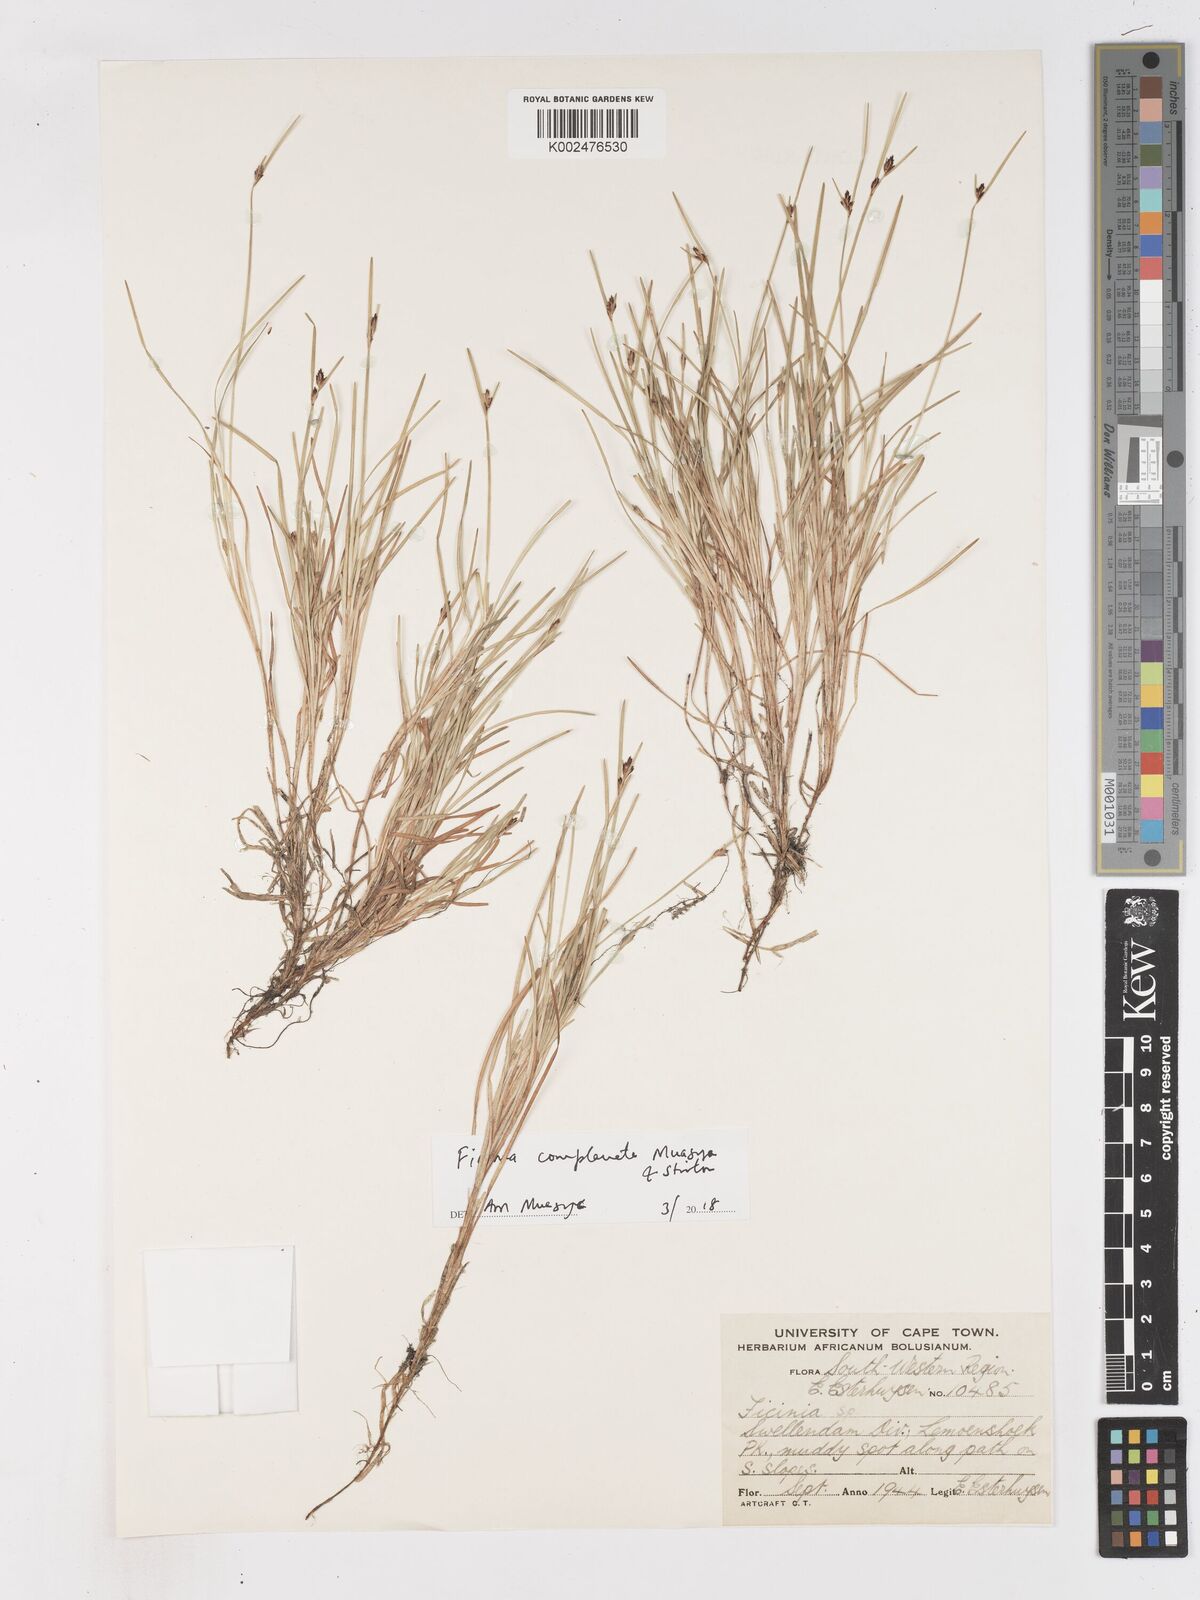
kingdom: Plantae
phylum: Tracheophyta
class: Liliopsida
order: Poales
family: Cyperaceae
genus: Ficinia
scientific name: Ficinia
